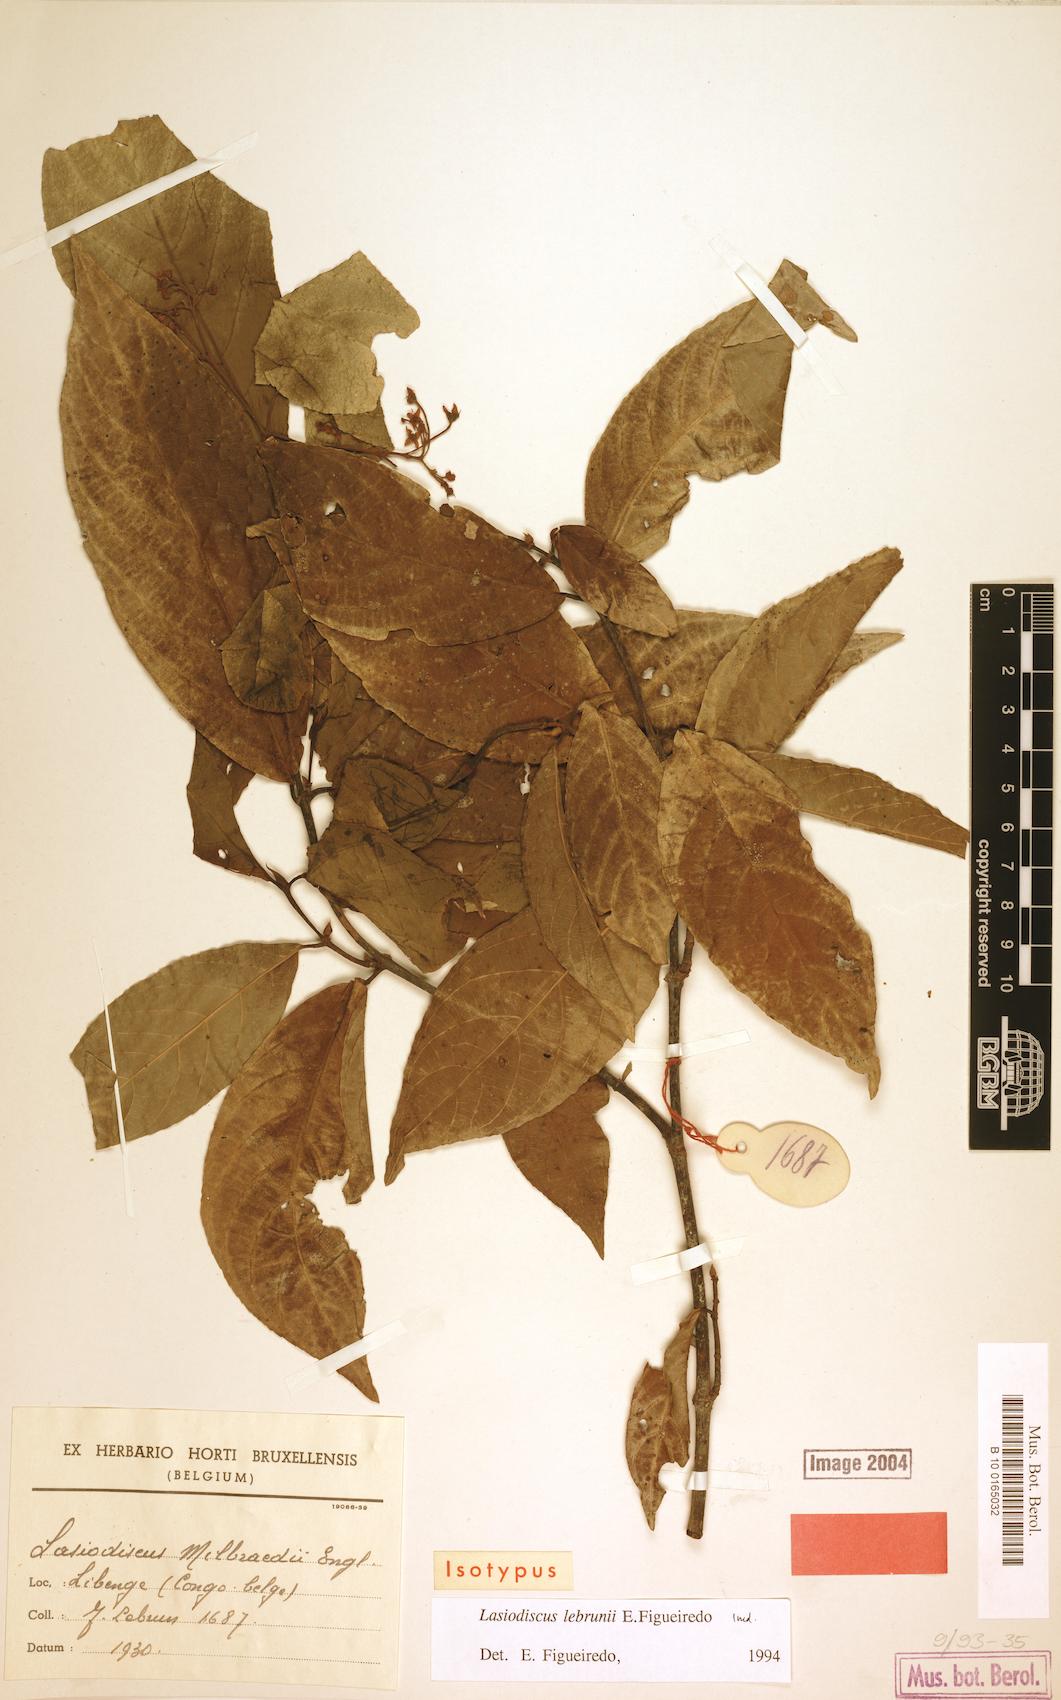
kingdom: Plantae
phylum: Tracheophyta
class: Magnoliopsida
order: Rosales
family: Rhamnaceae
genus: Lasiodiscus
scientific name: Lasiodiscus lebrunii
